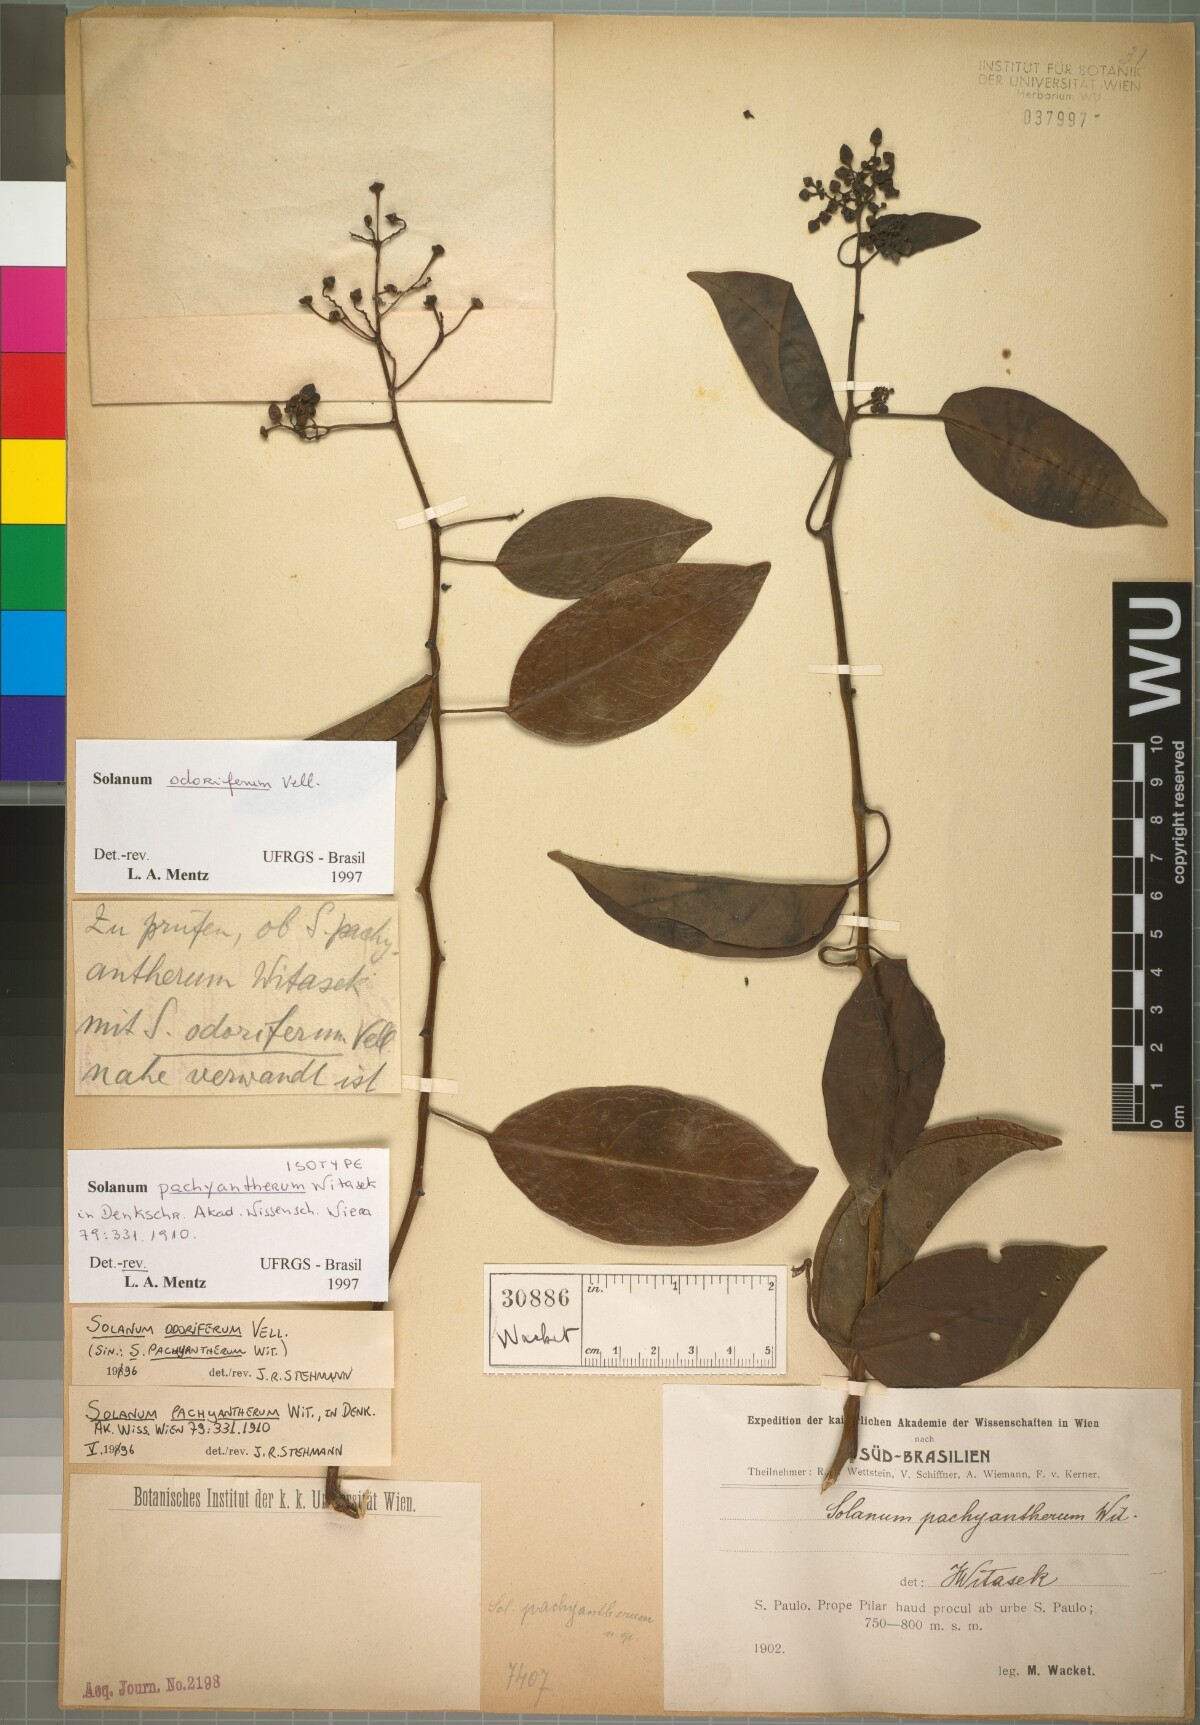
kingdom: Plantae
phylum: Tracheophyta
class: Magnoliopsida
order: Solanales
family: Solanaceae
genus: Solanum
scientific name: Solanum odoriferum
